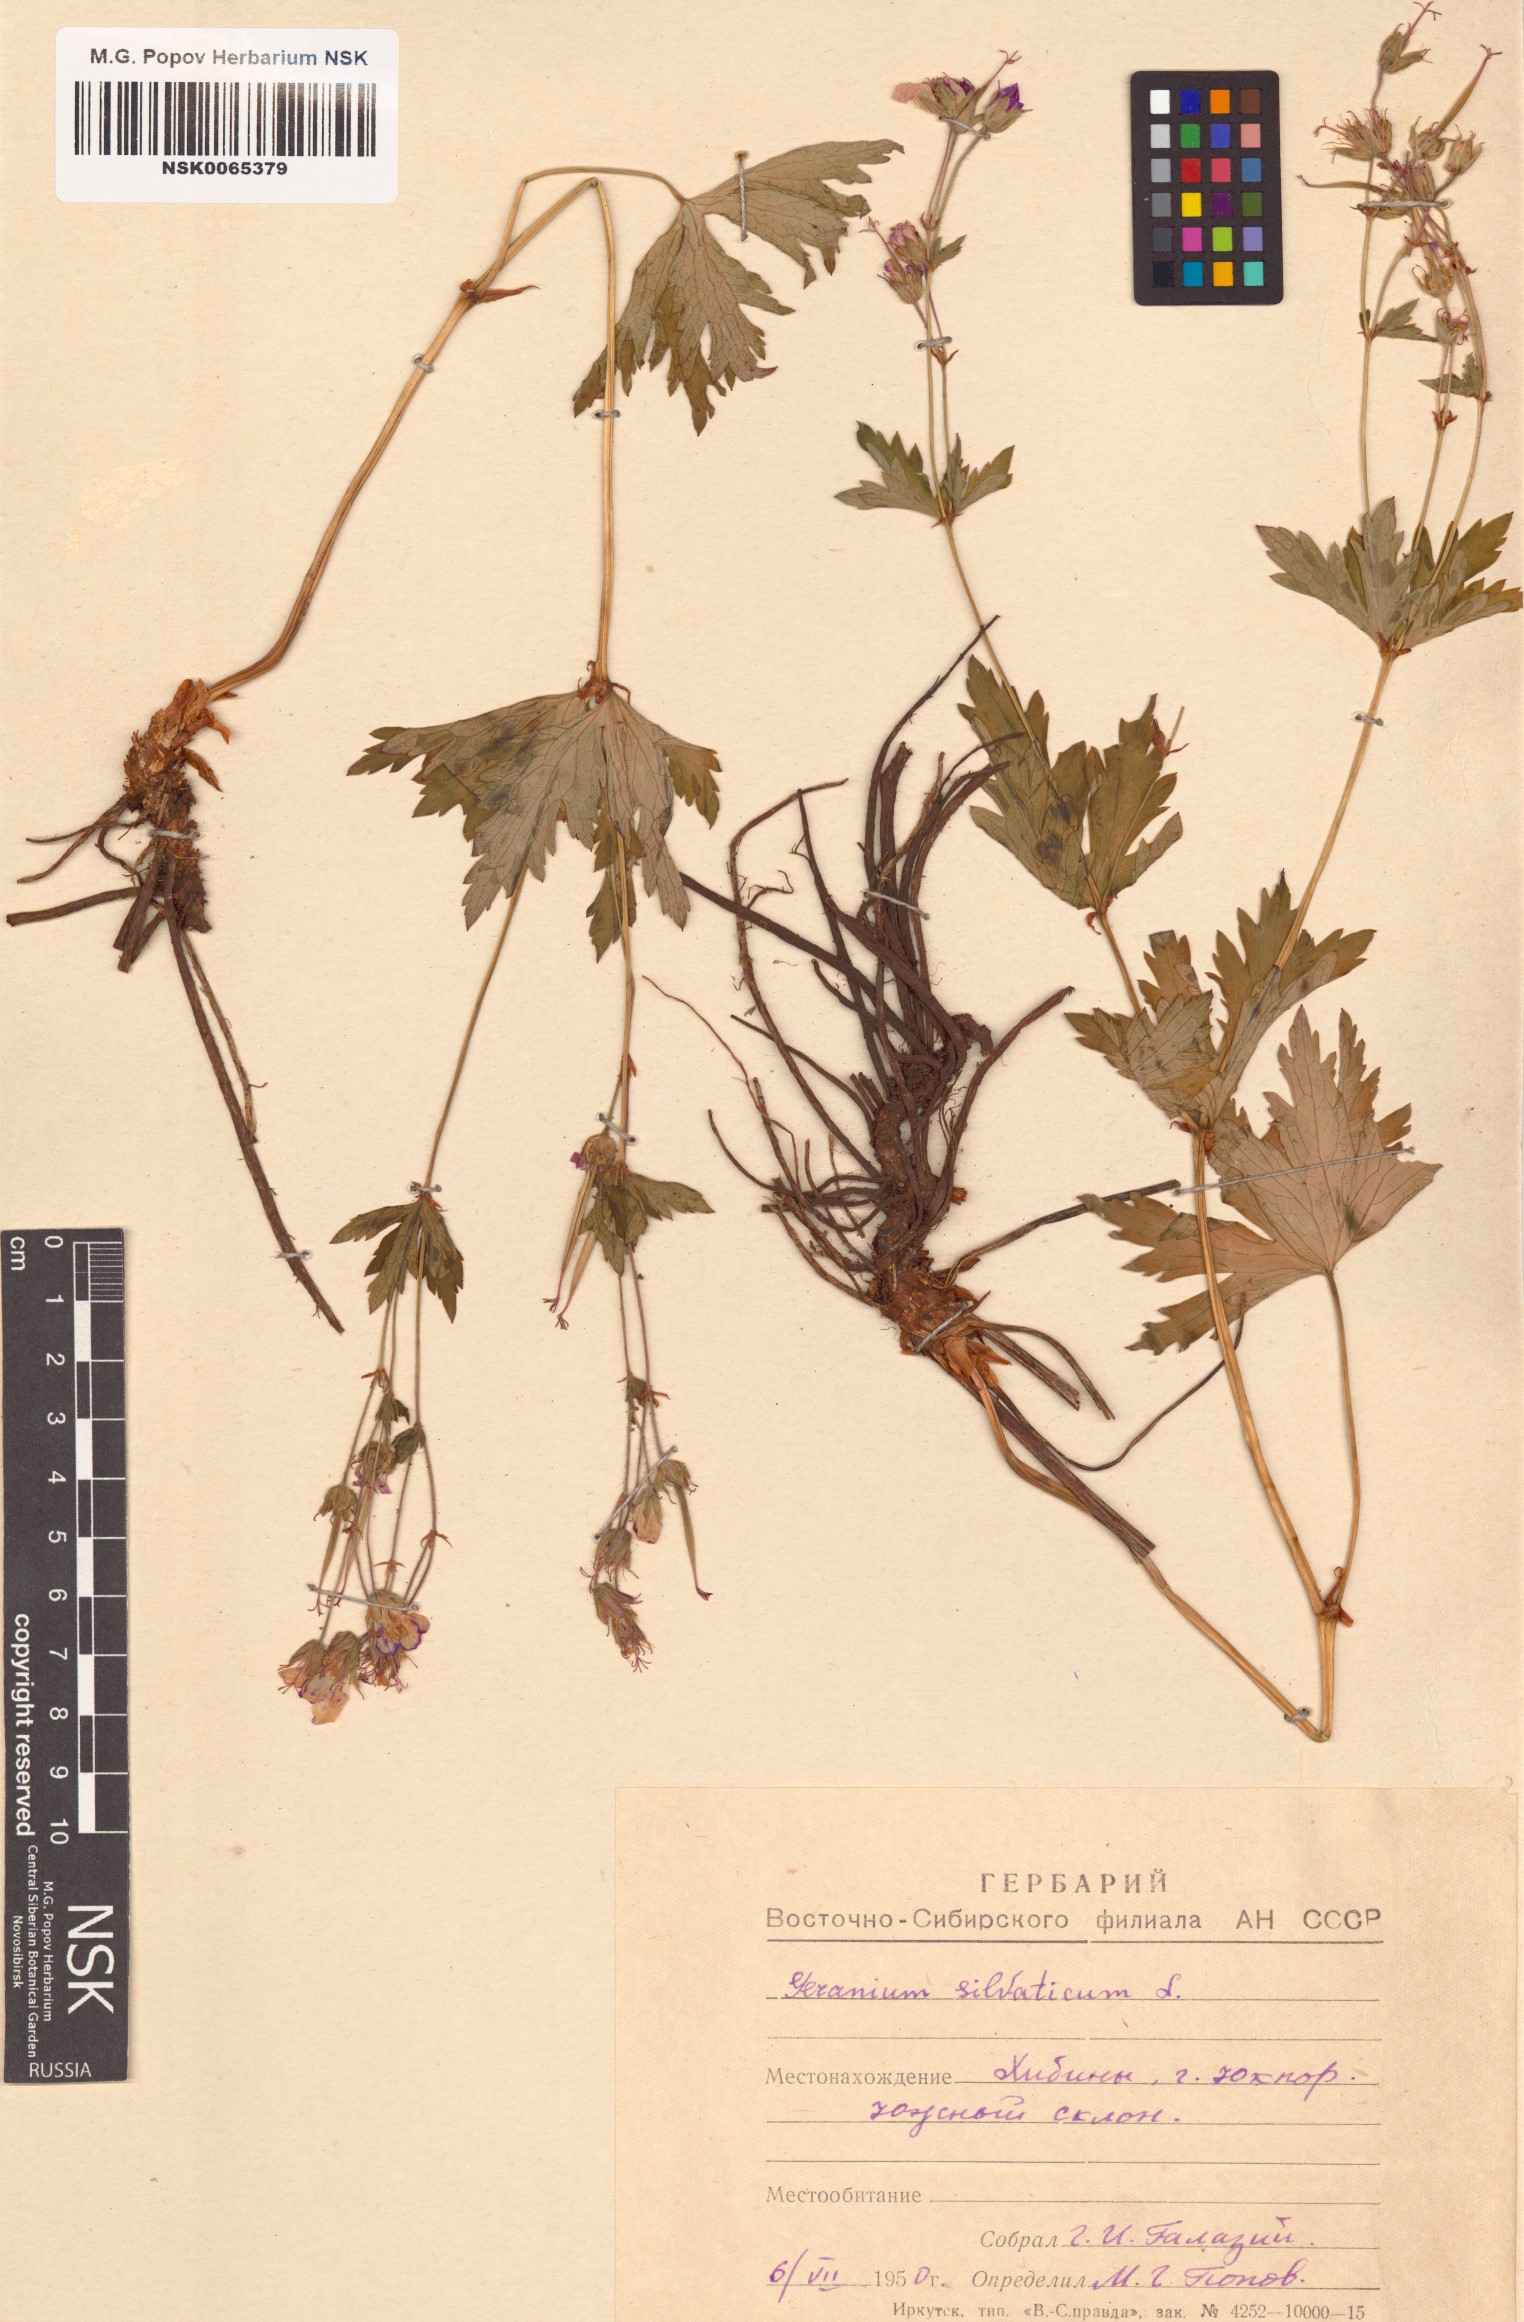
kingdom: Plantae
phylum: Tracheophyta
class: Magnoliopsida
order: Geraniales
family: Geraniaceae
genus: Geranium
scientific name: Geranium sylvaticum
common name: Wood crane's-bill
